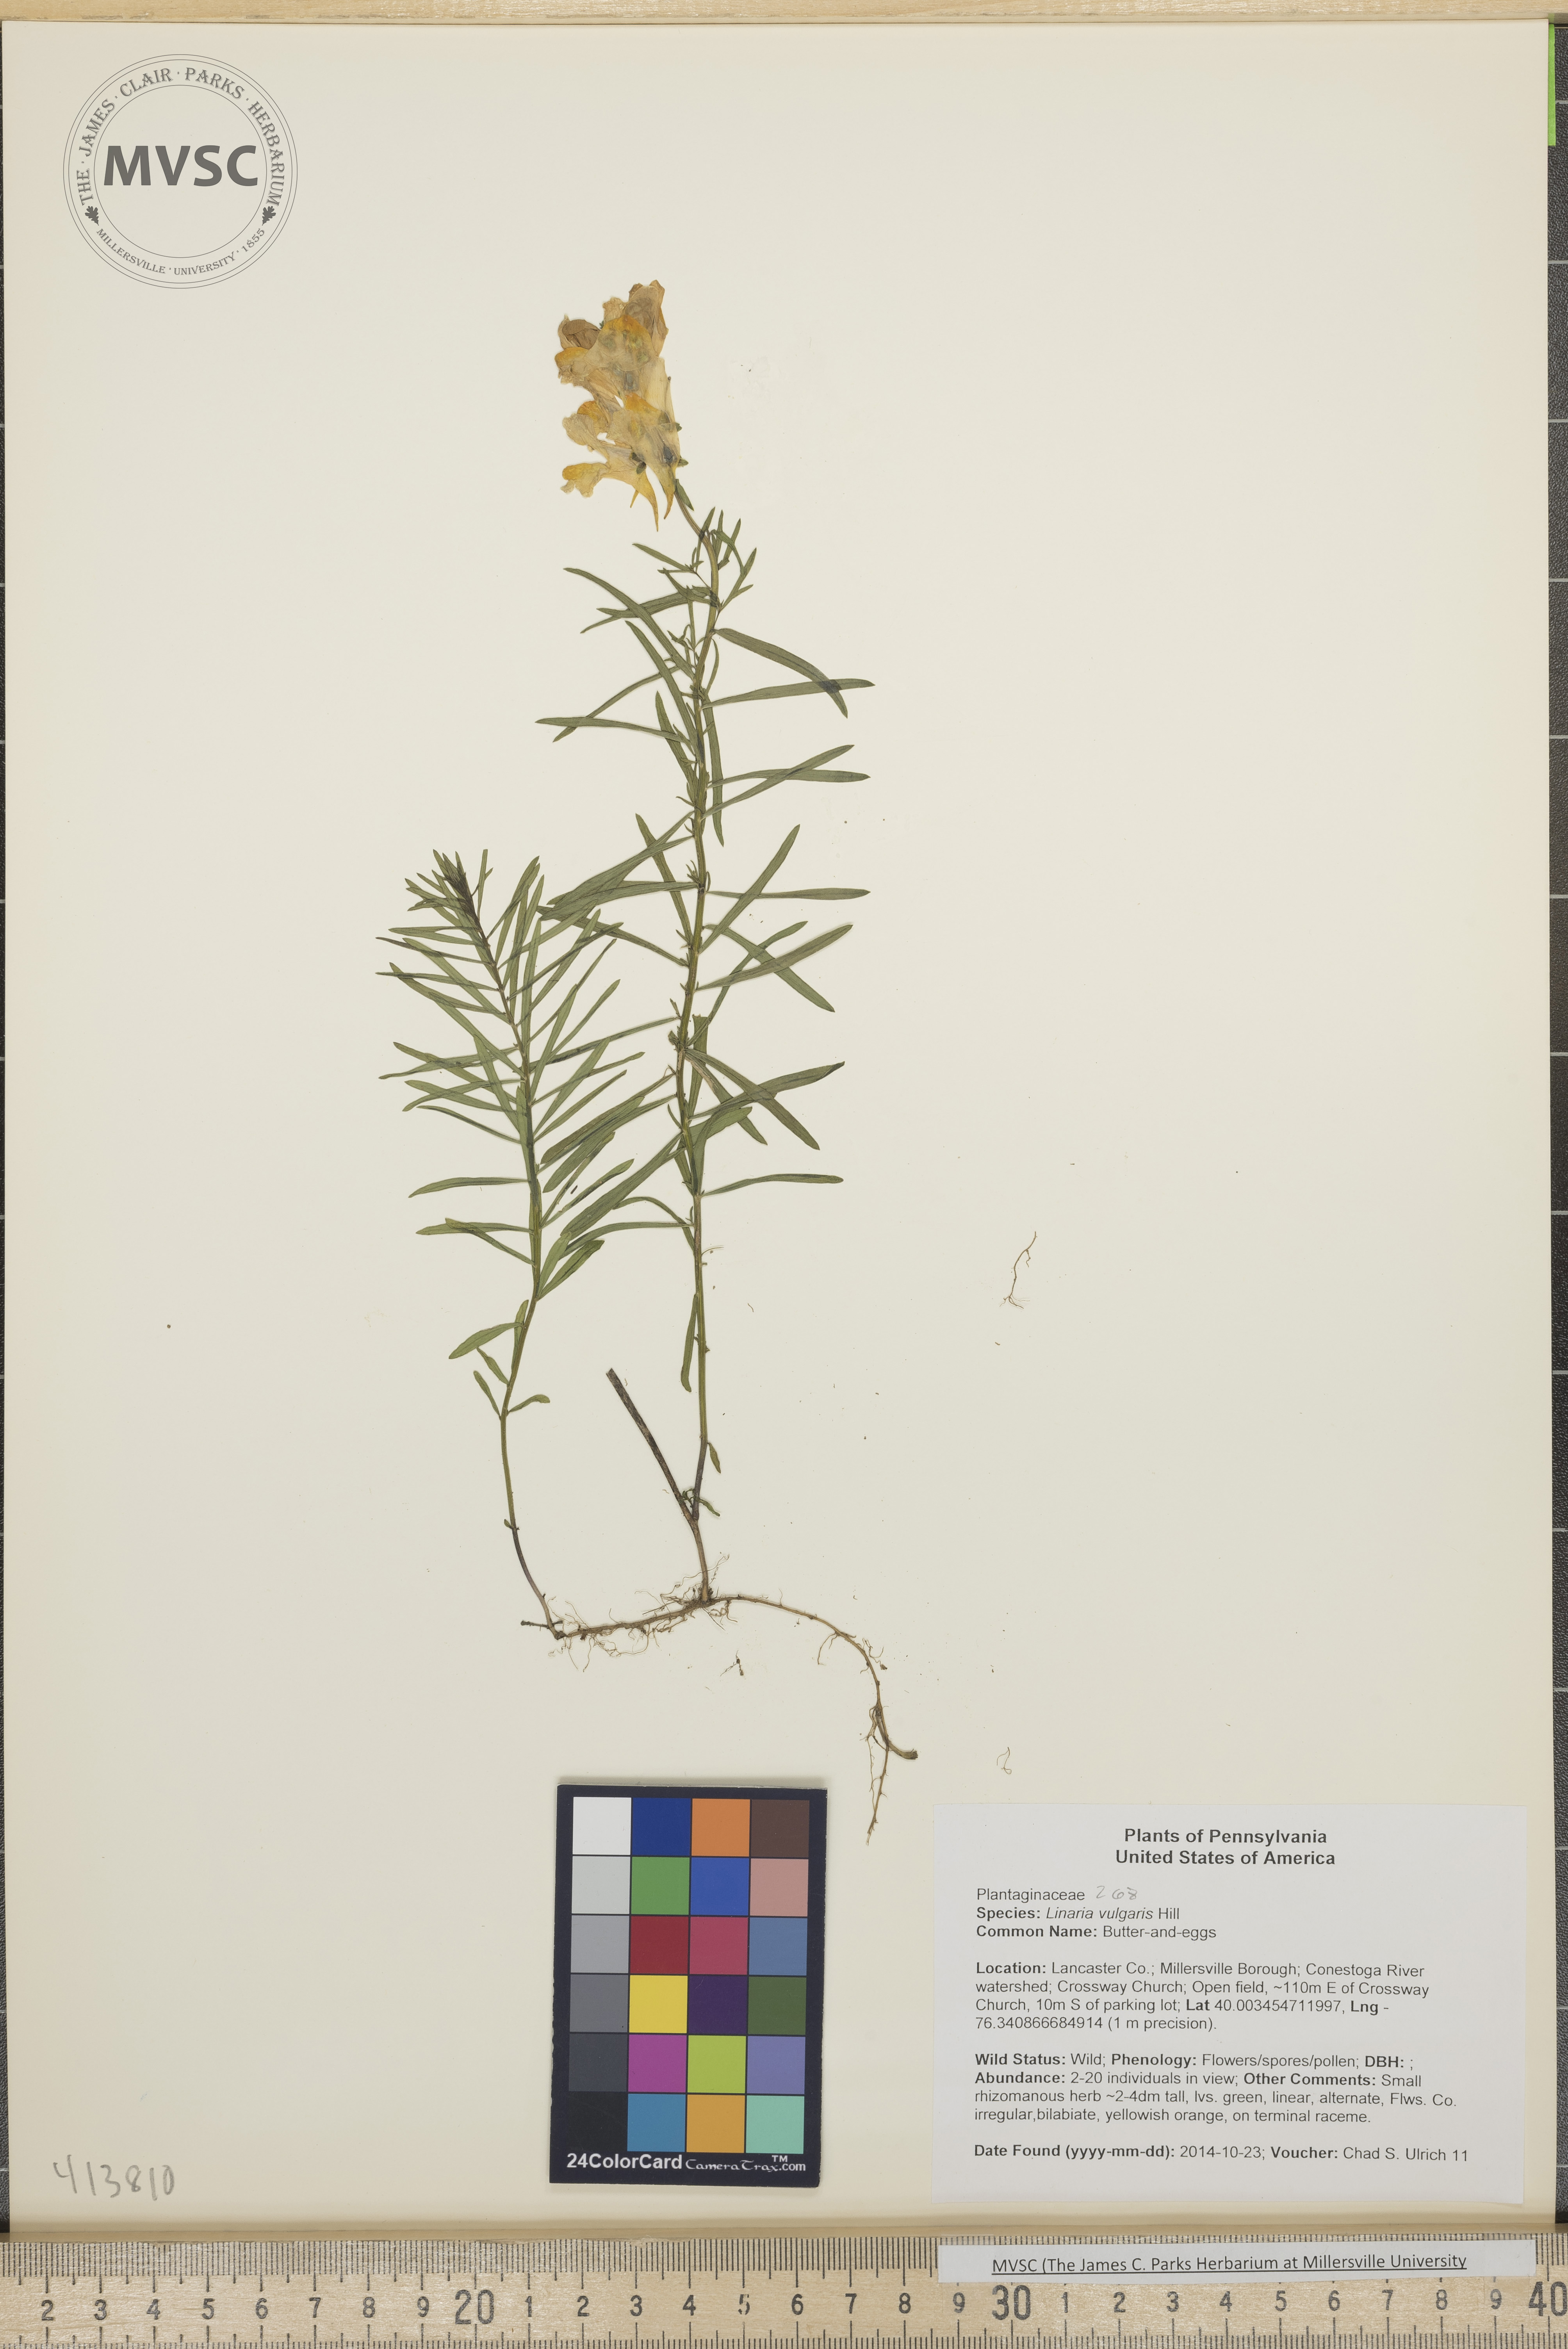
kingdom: Plantae
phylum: Tracheophyta
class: Magnoliopsida
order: Lamiales
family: Plantaginaceae
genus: Linaria
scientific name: Linaria vulgaris
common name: Butter-and-eggs
